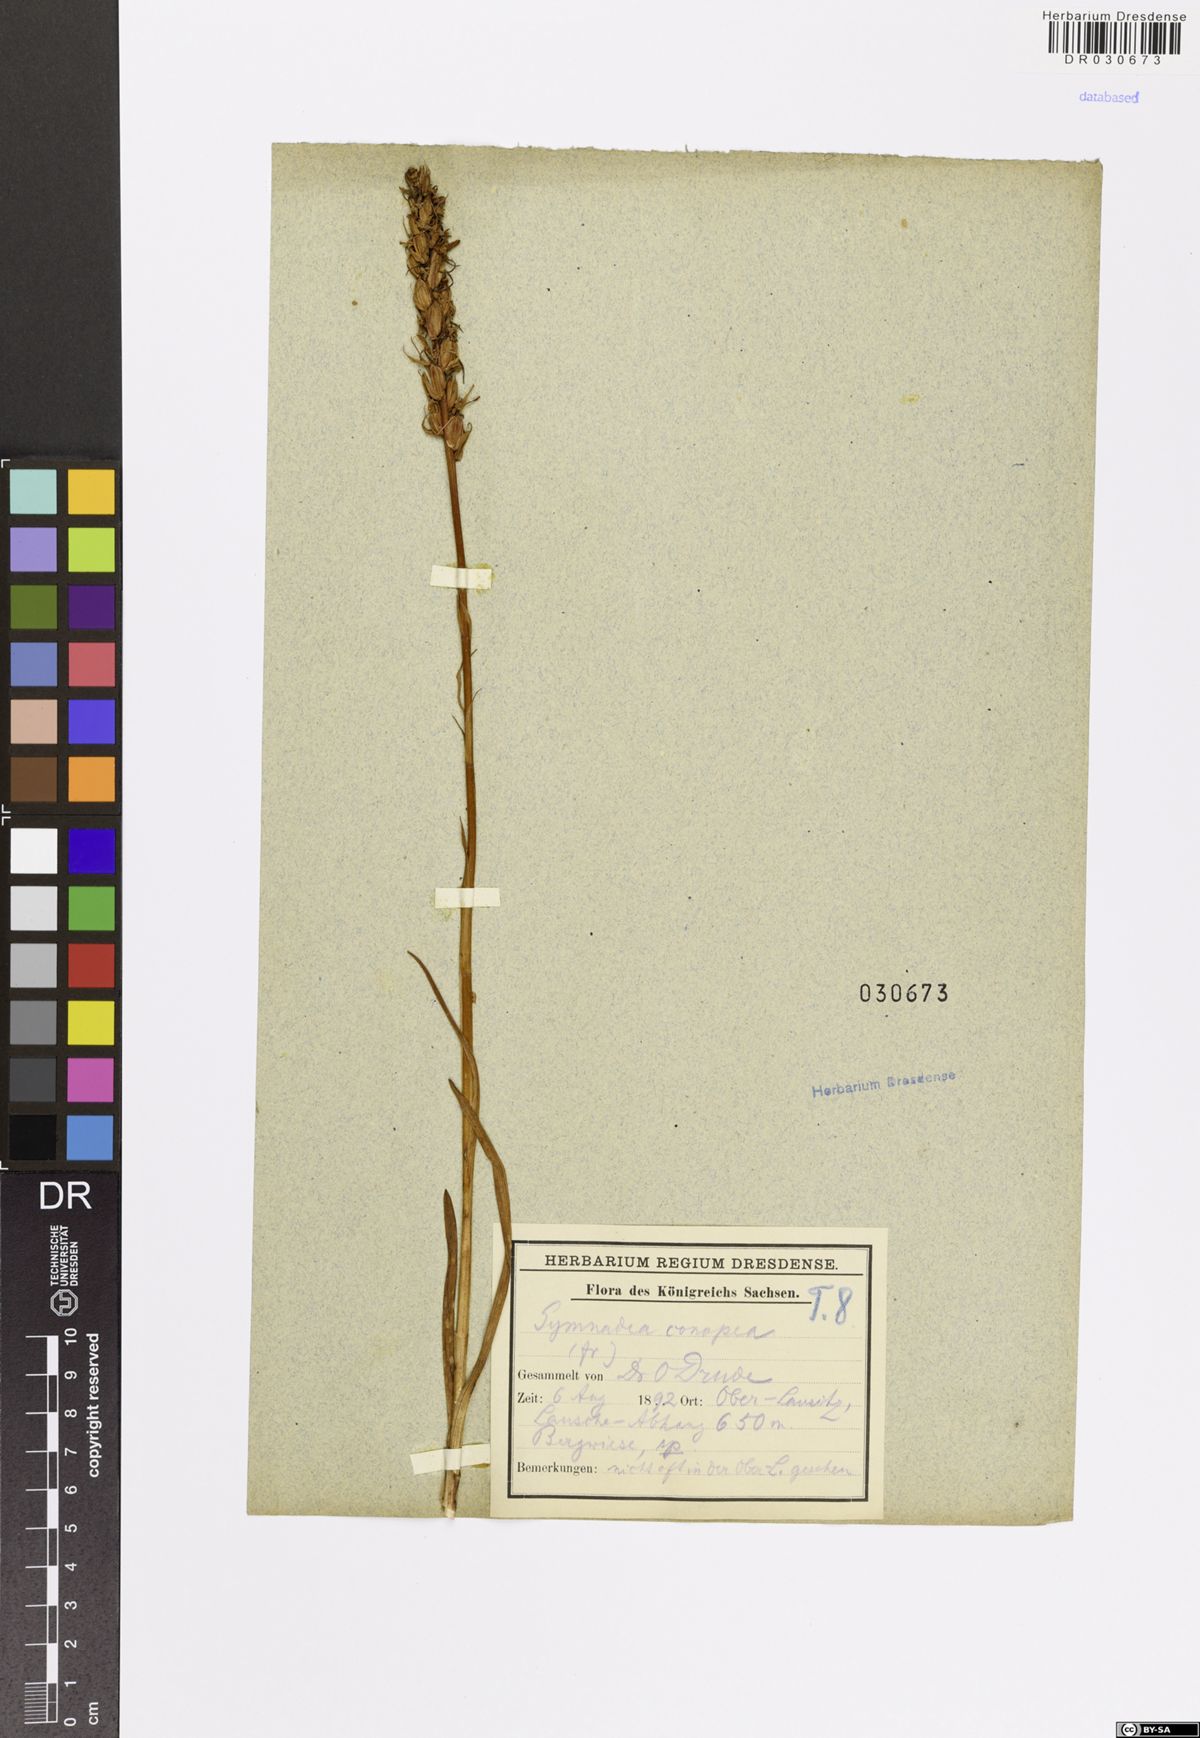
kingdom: Plantae
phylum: Tracheophyta
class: Liliopsida
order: Asparagales
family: Orchidaceae
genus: Gymnadenia
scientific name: Gymnadenia conopsea
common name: Fragrant orchid
